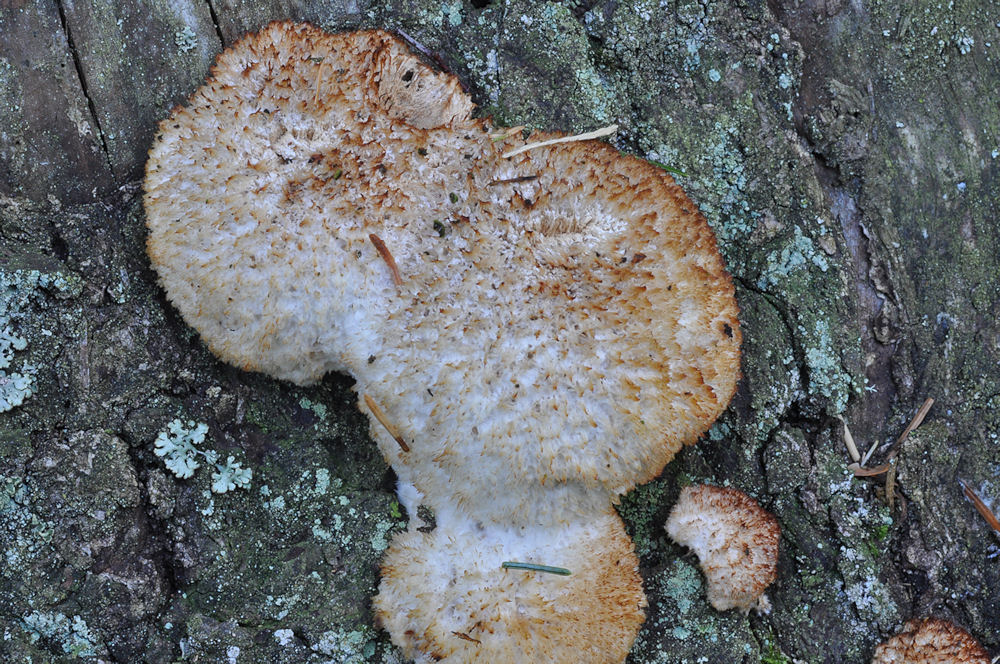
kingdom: Fungi
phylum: Basidiomycota
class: Agaricomycetes
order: Polyporales
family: Dacryobolaceae
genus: Postia
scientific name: Postia ptychogaster
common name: støvende kødporesvamp
